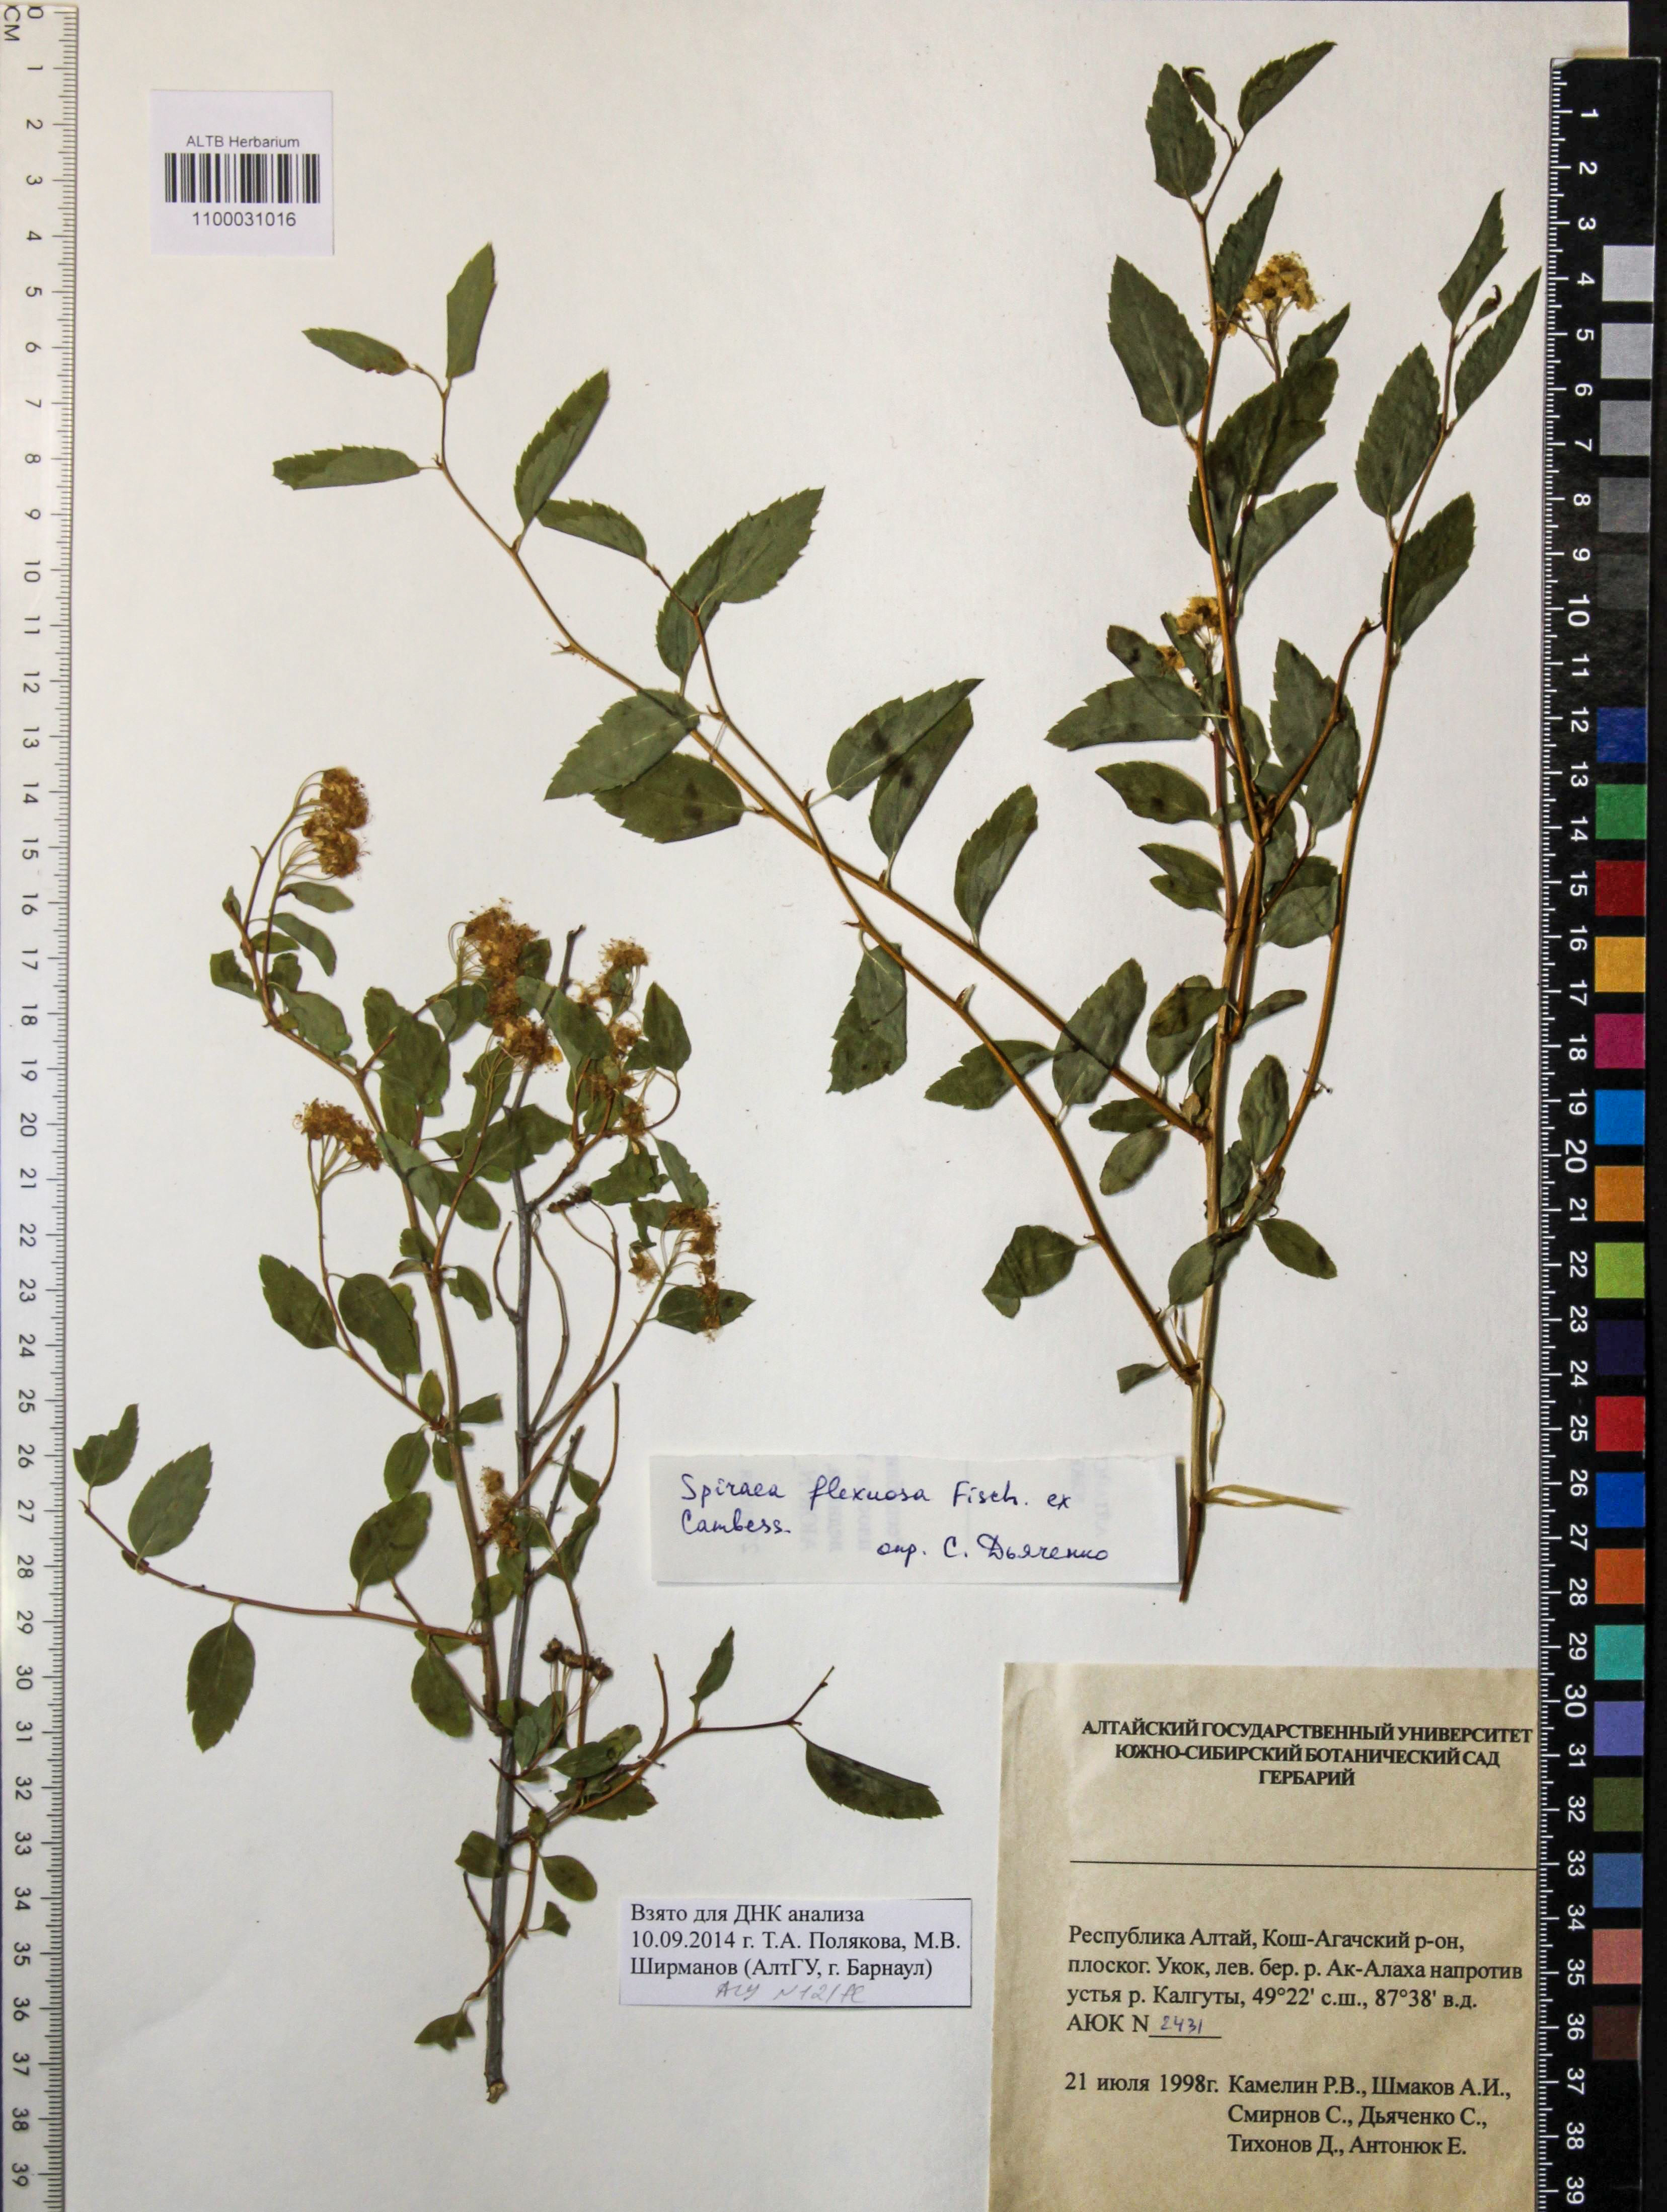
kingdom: Plantae
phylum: Tracheophyta
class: Magnoliopsida
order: Rosales
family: Rosaceae
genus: Spiraea
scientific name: Spiraea flexuosa
